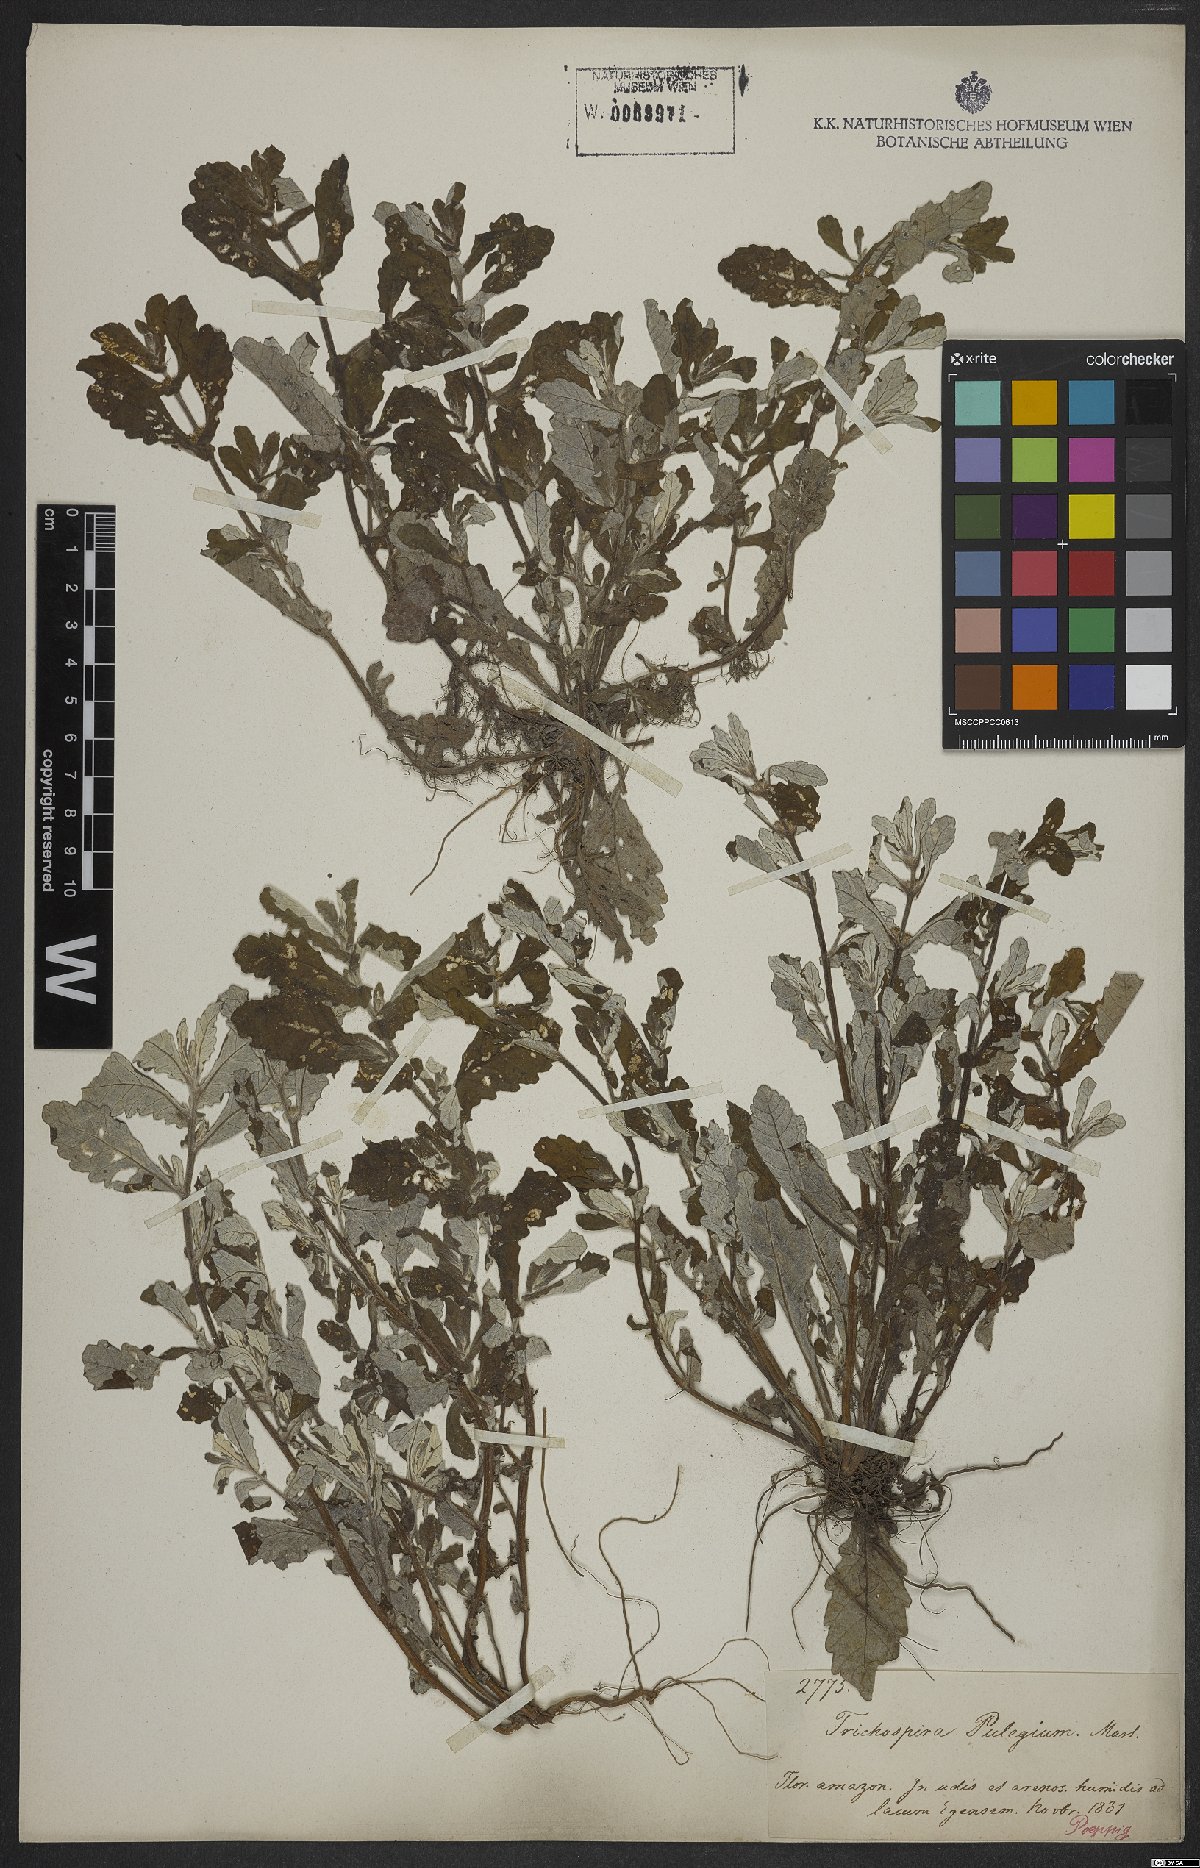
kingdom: Chromista
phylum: Ciliophora
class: Kinetofragminophora
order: Trichostomatida
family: Trichospiridae
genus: Trichospira
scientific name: Trichospira verticillata
